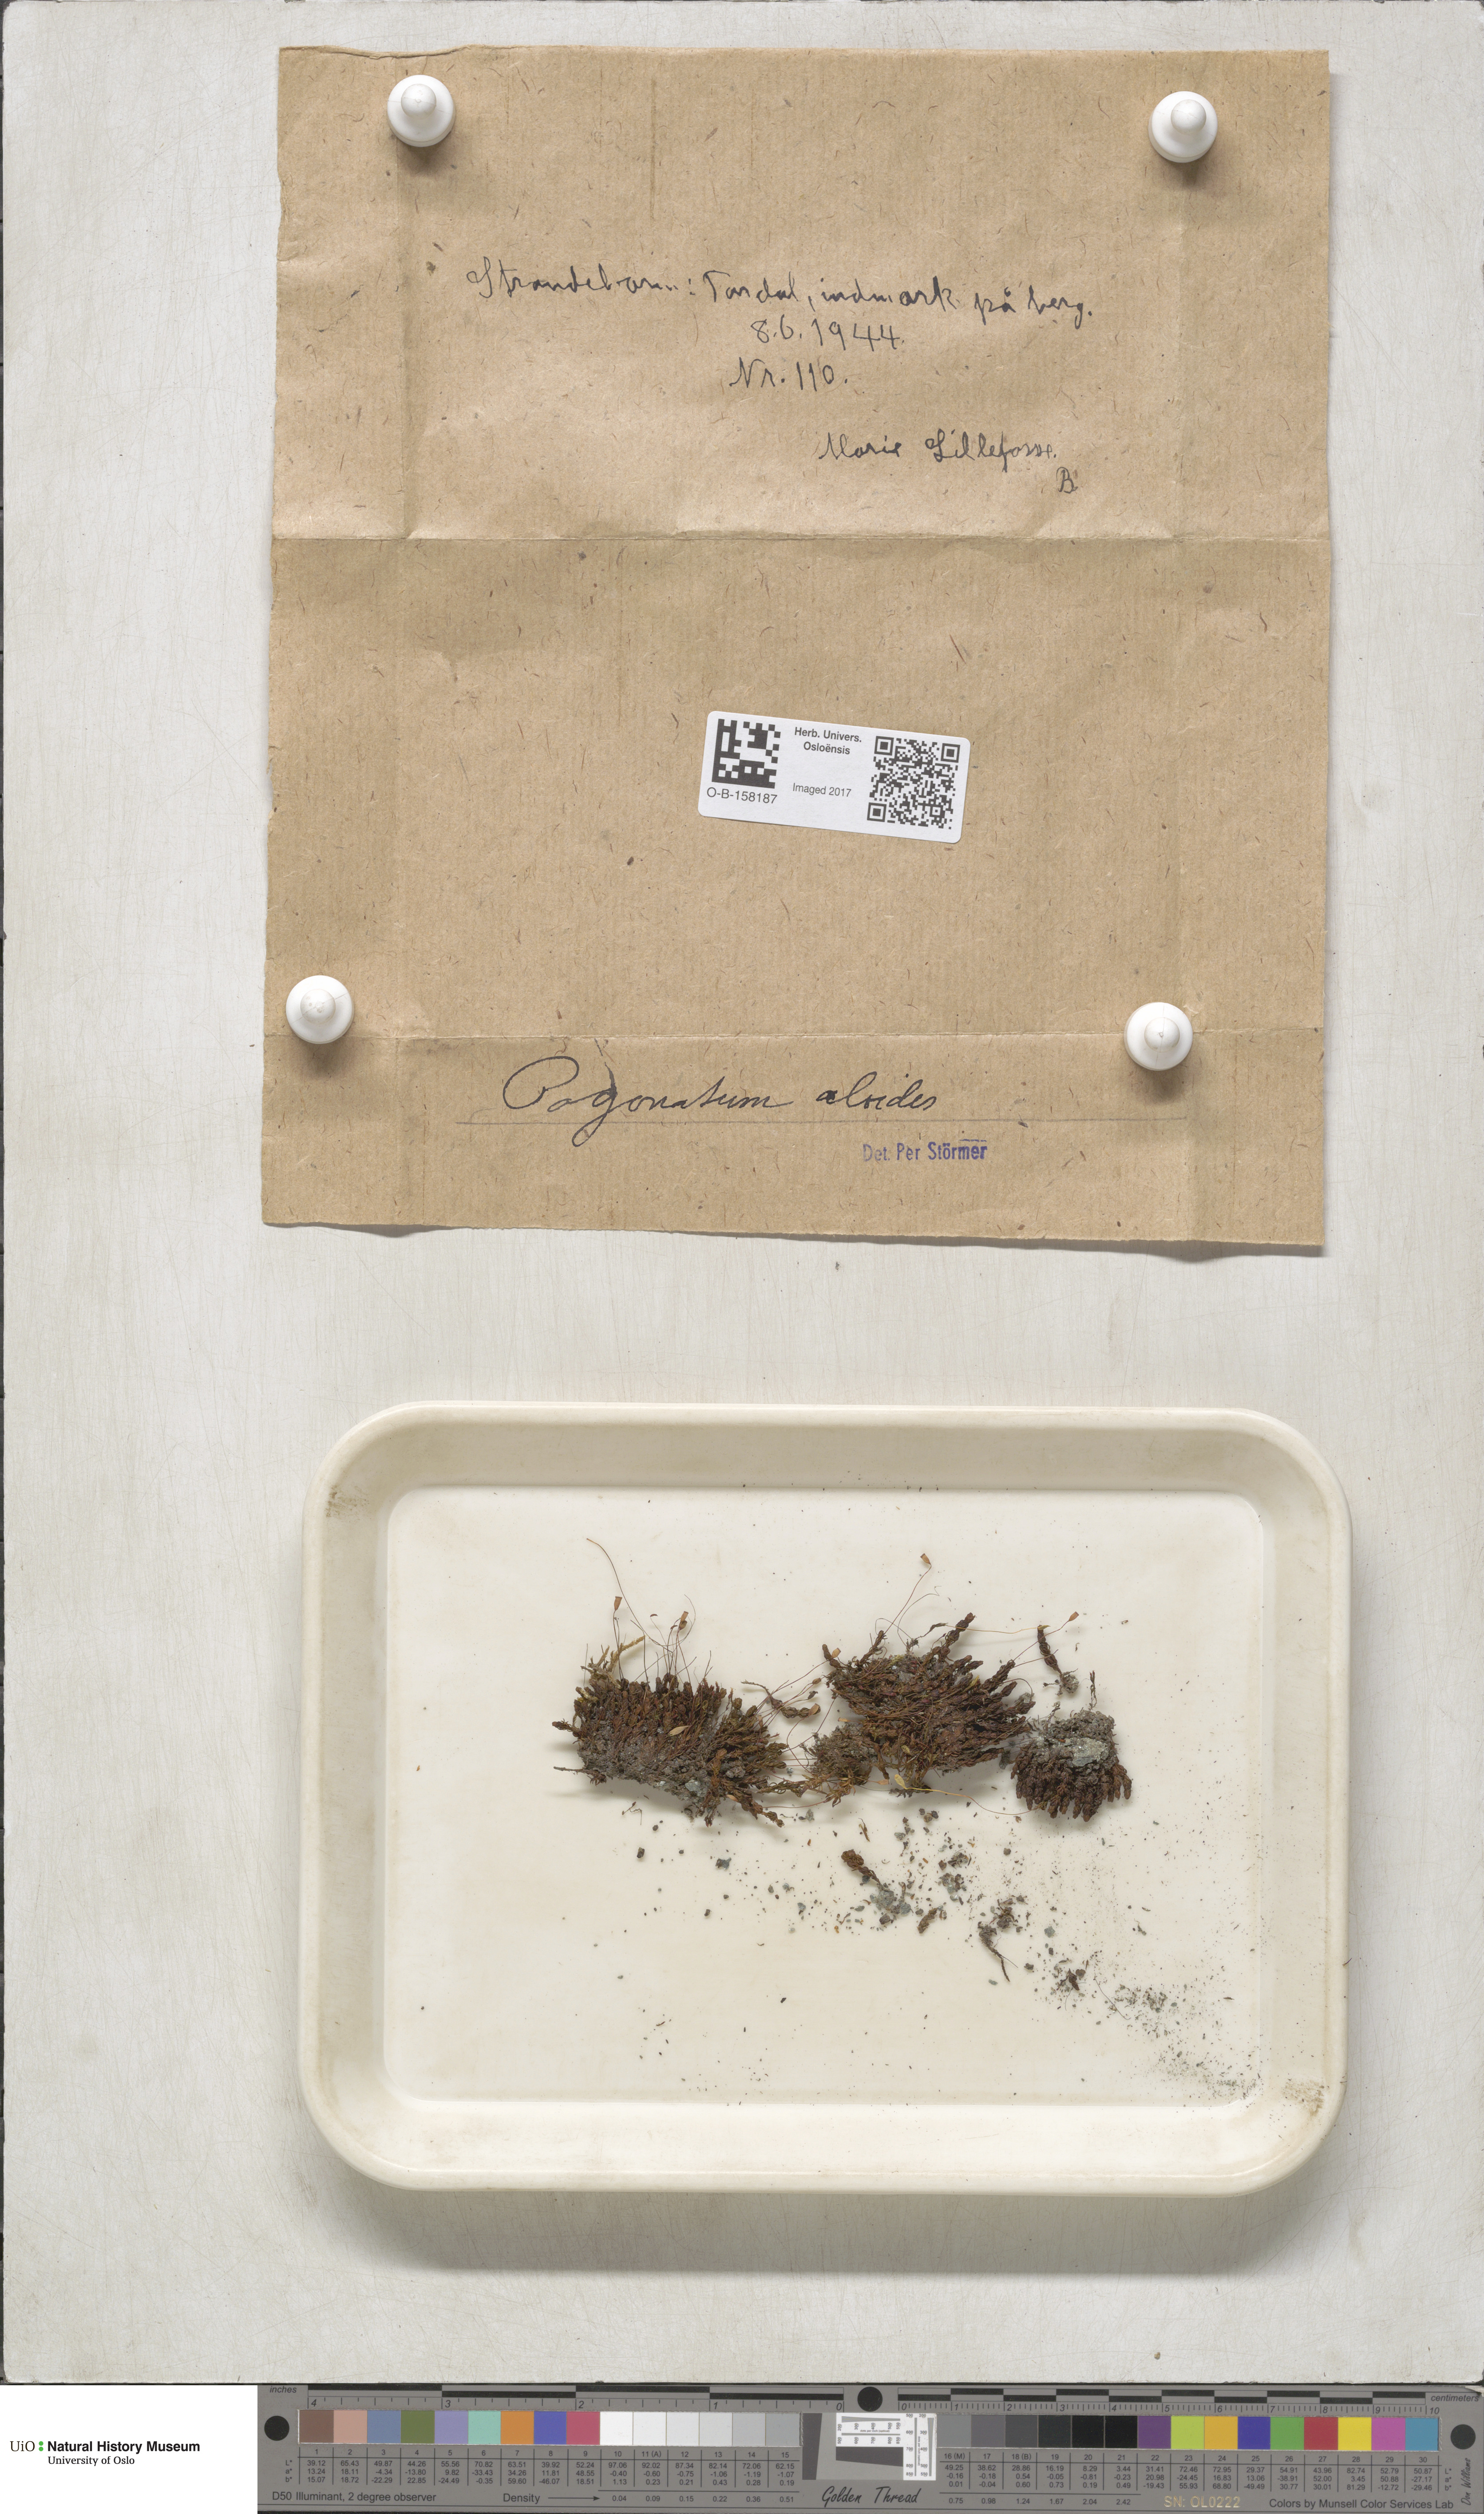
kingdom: Plantae
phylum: Bryophyta
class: Polytrichopsida
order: Polytrichales
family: Polytrichaceae
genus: Pogonatum
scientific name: Pogonatum aloides
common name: Aloe haircap
